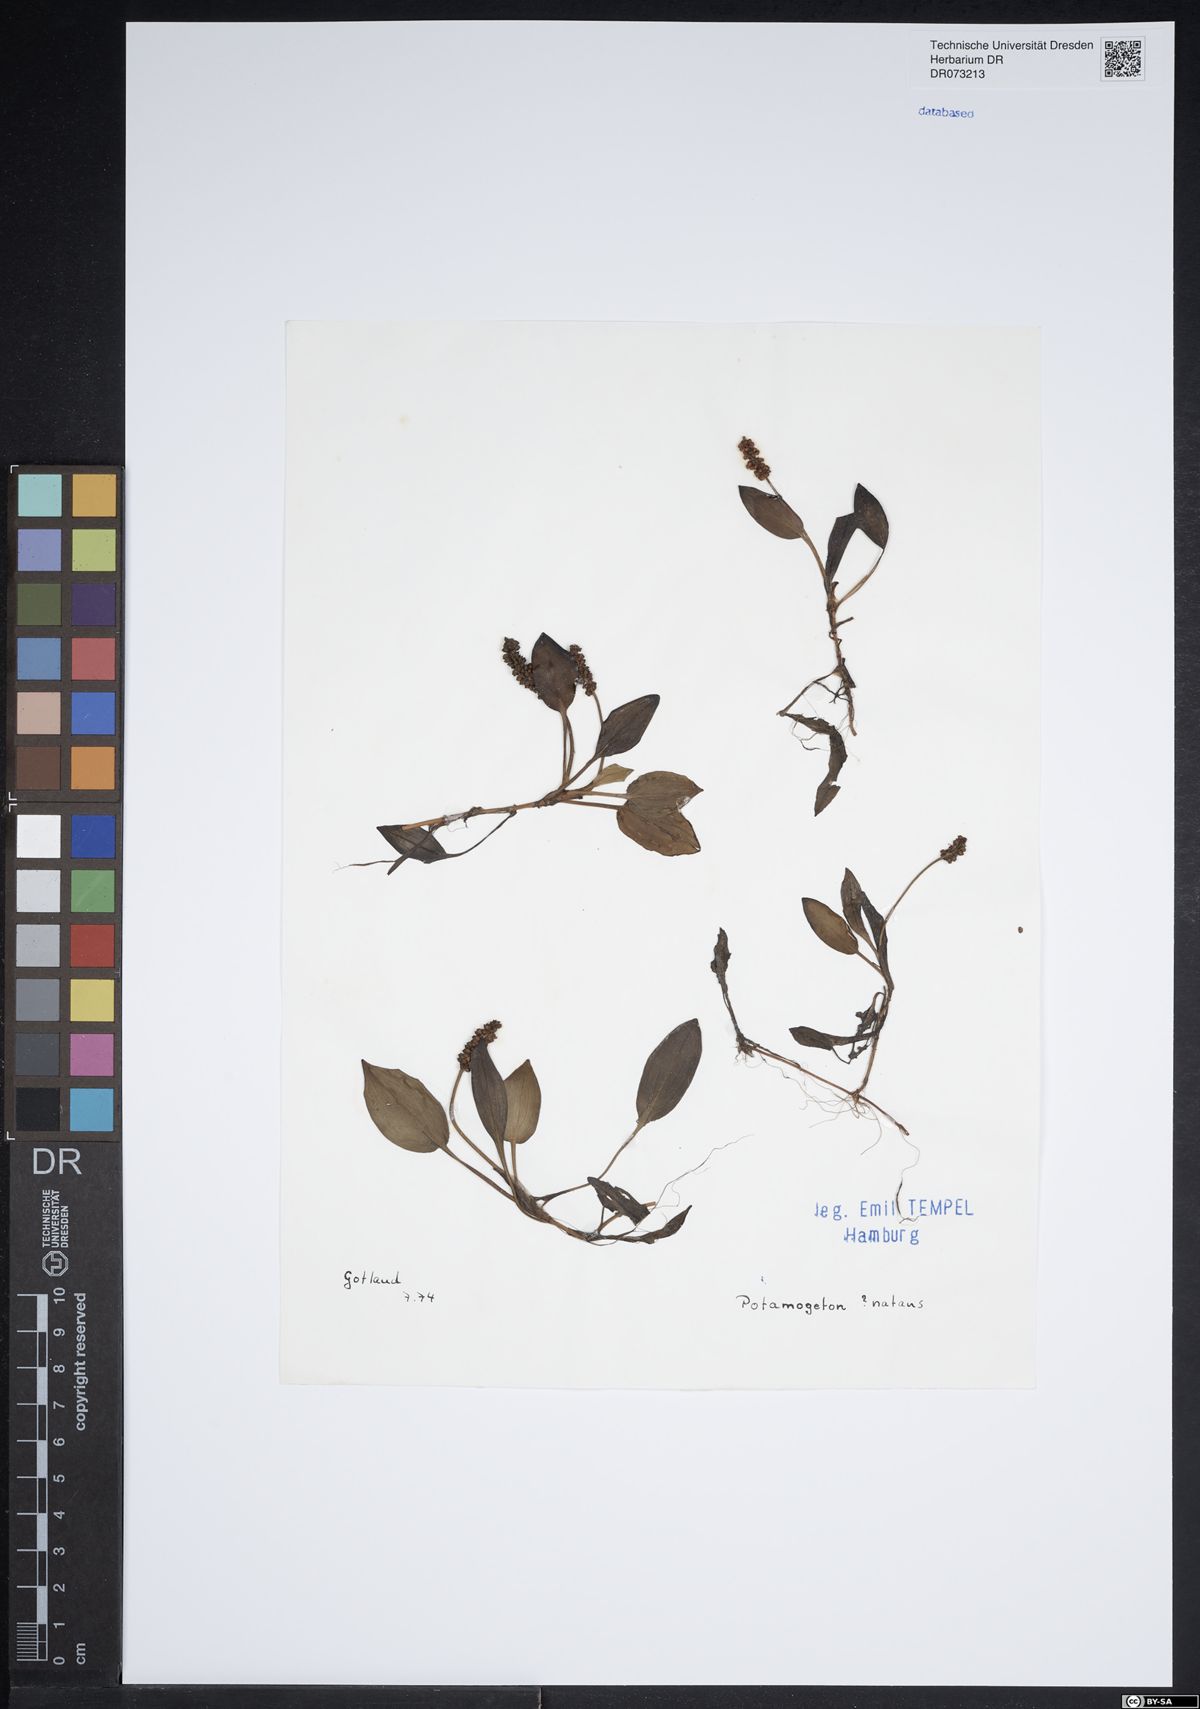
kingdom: Plantae
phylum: Tracheophyta
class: Liliopsida
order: Alismatales
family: Potamogetonaceae
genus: Potamogeton
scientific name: Potamogeton natans
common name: Broad-leaved pondweed
